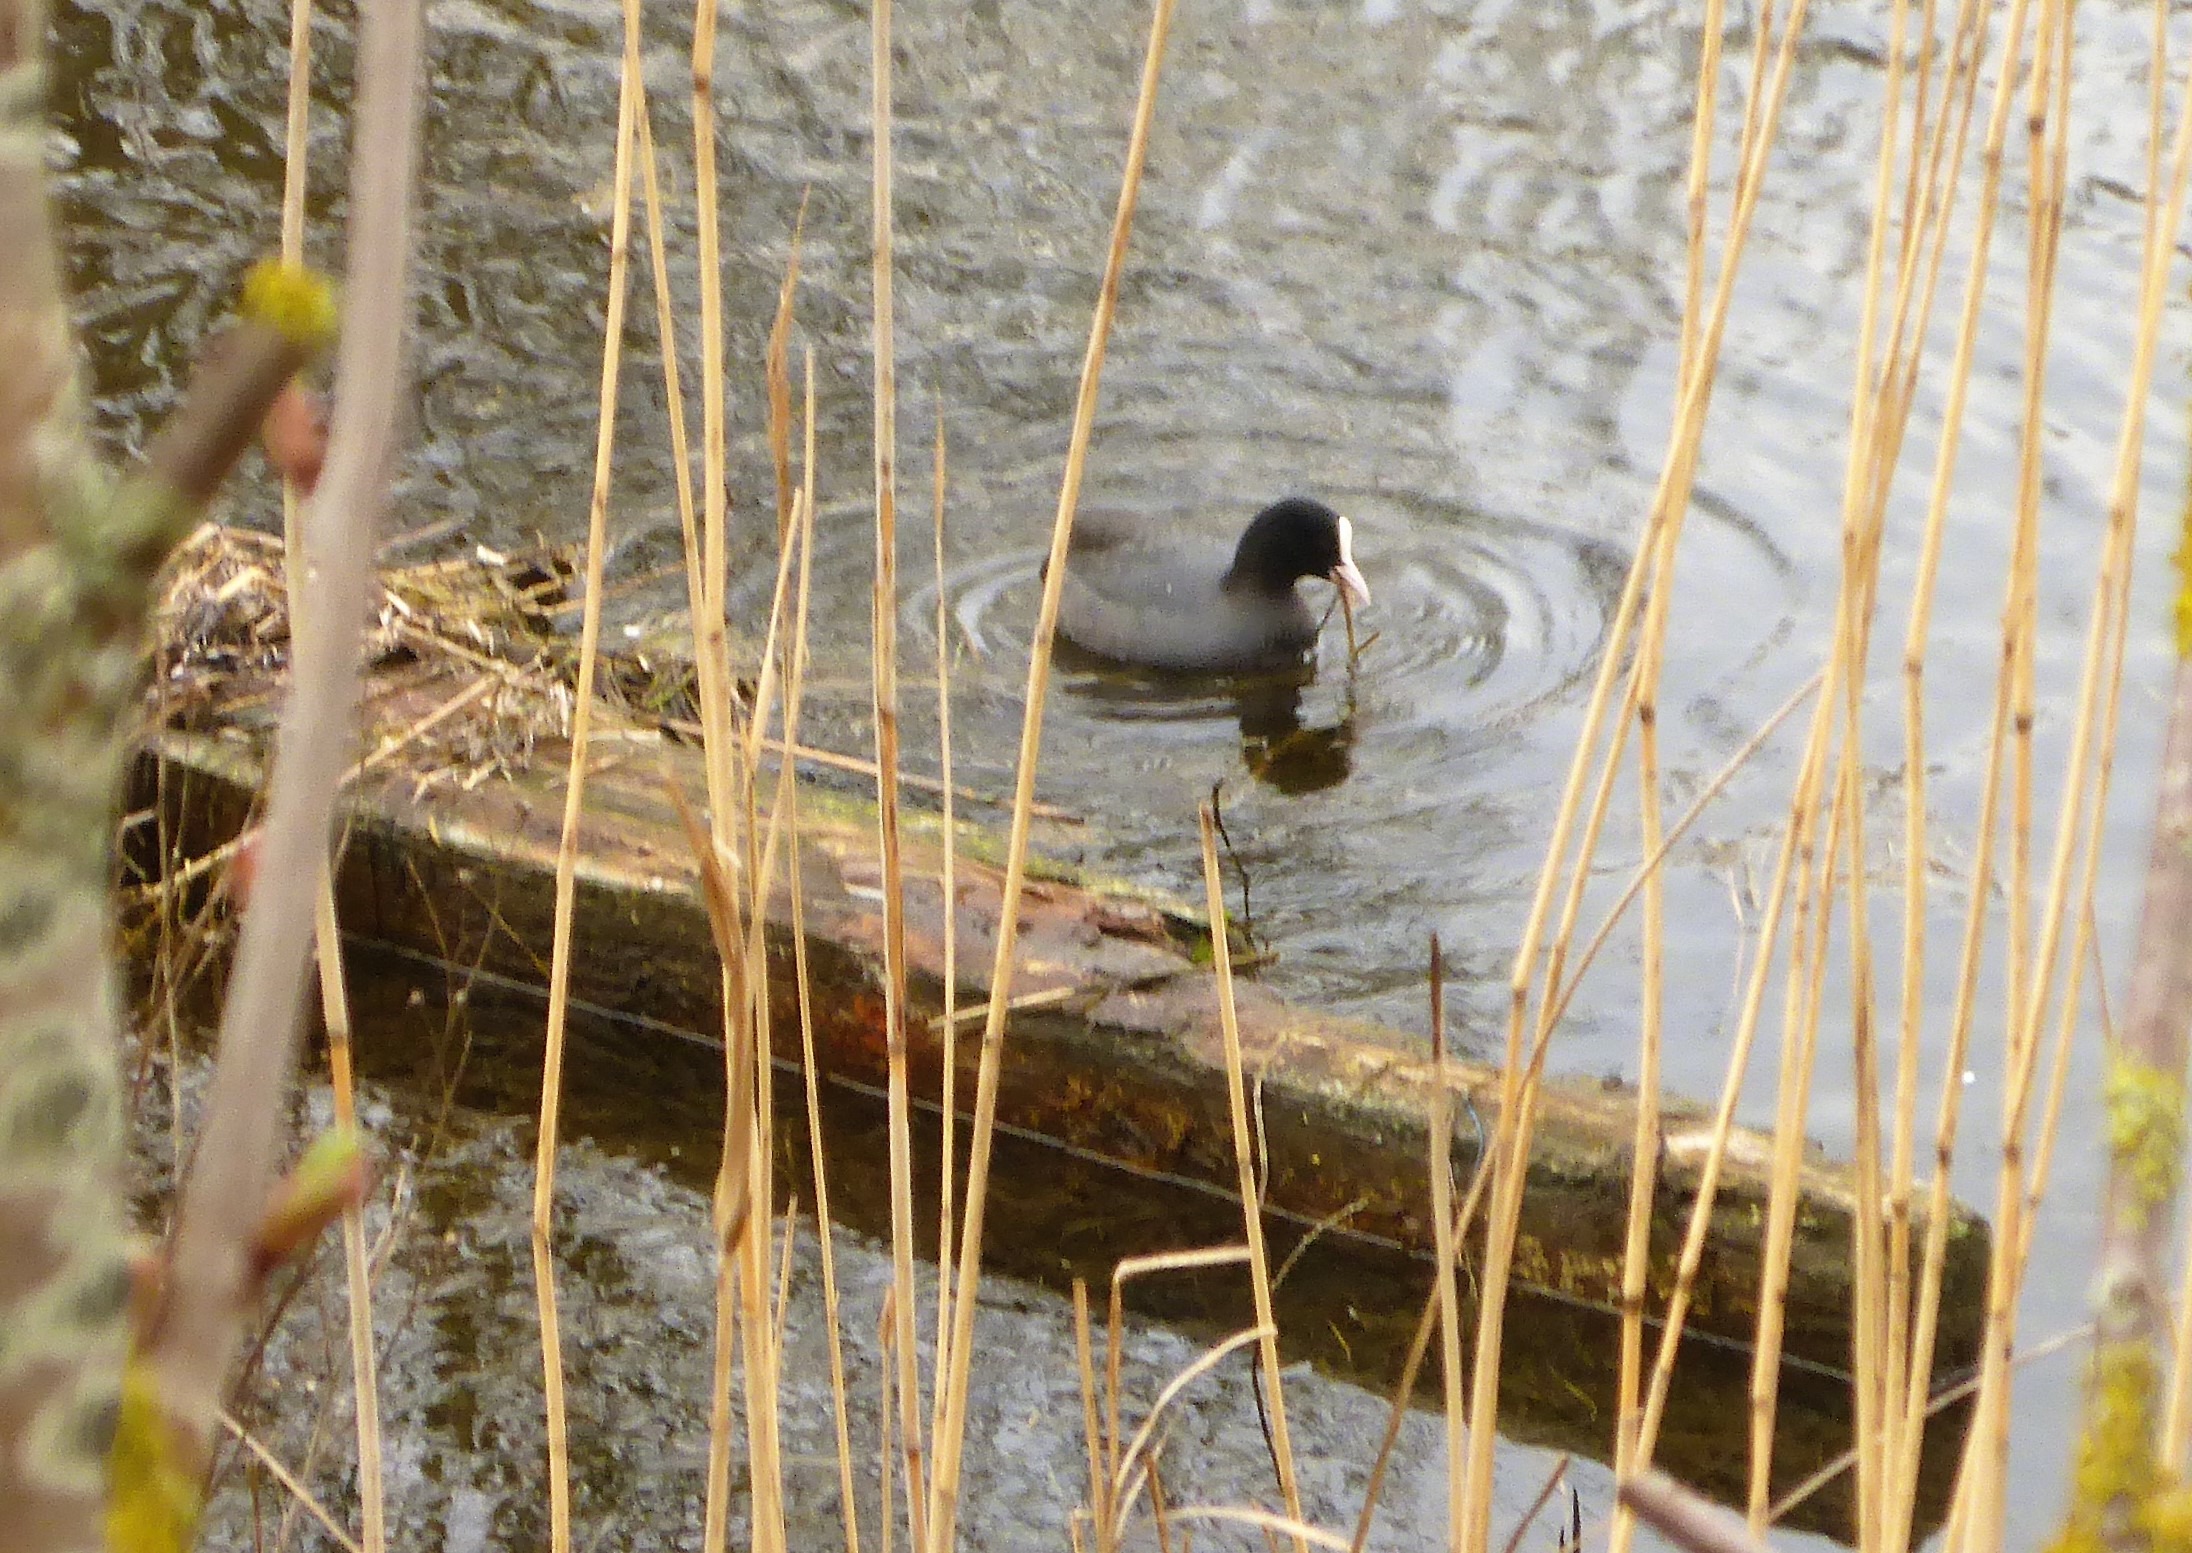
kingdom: Animalia
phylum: Chordata
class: Aves
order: Gruiformes
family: Rallidae
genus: Fulica
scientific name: Fulica atra
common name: Blishøne
